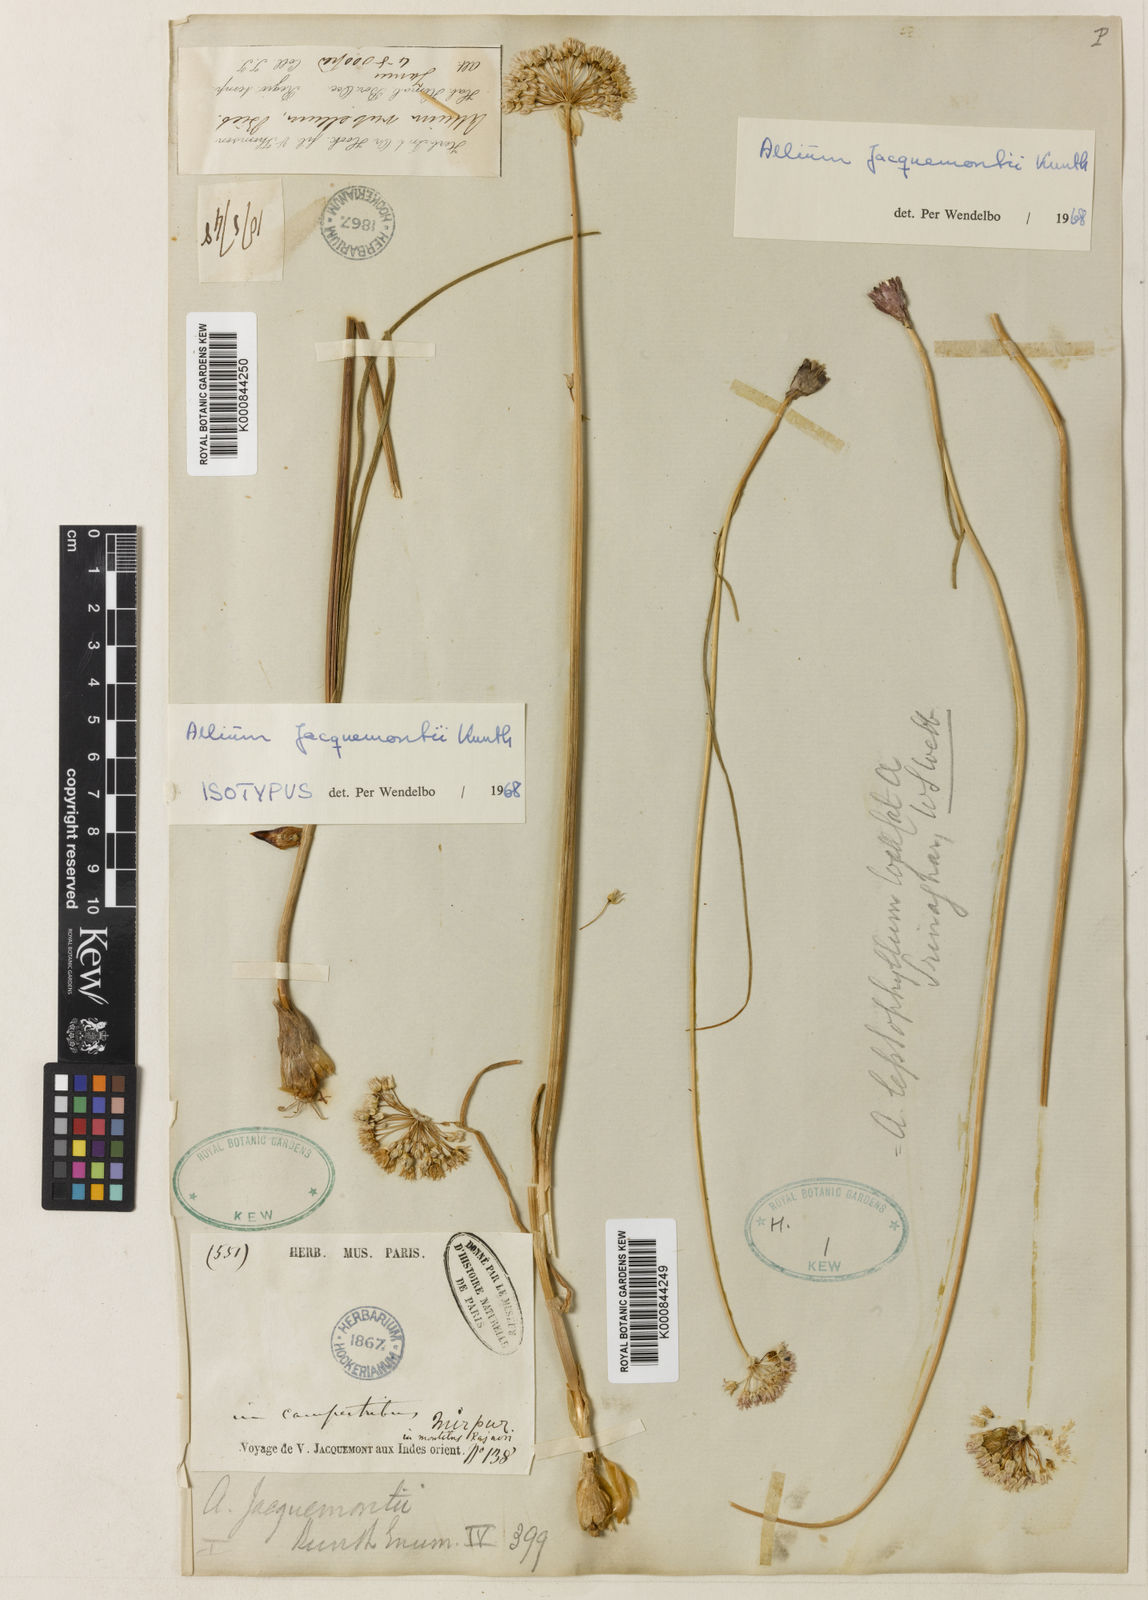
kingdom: Plantae
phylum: Tracheophyta
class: Liliopsida
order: Asparagales
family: Amaryllidaceae
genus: Allium
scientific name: Allium rubellum
